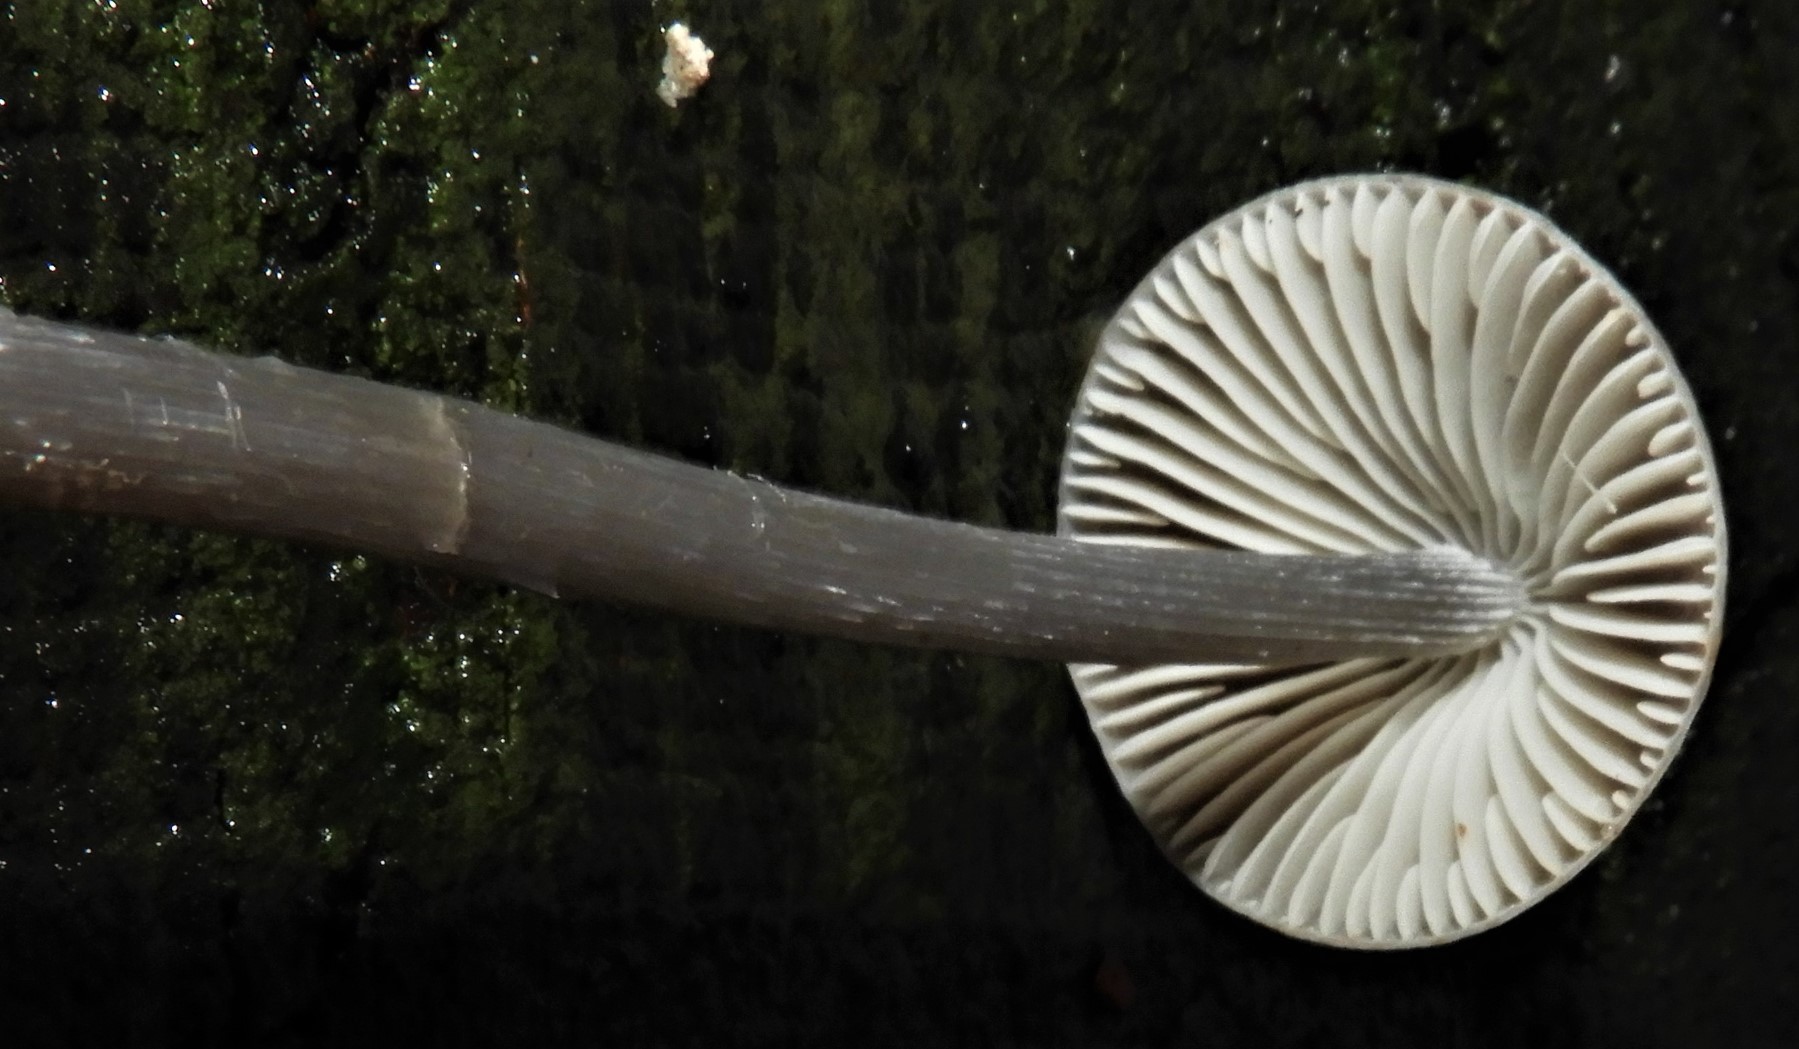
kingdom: Fungi
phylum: Basidiomycota
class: Agaricomycetes
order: Agaricales
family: Mycenaceae
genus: Mycena
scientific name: Mycena polygramma
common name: mangestribet huesvamp
